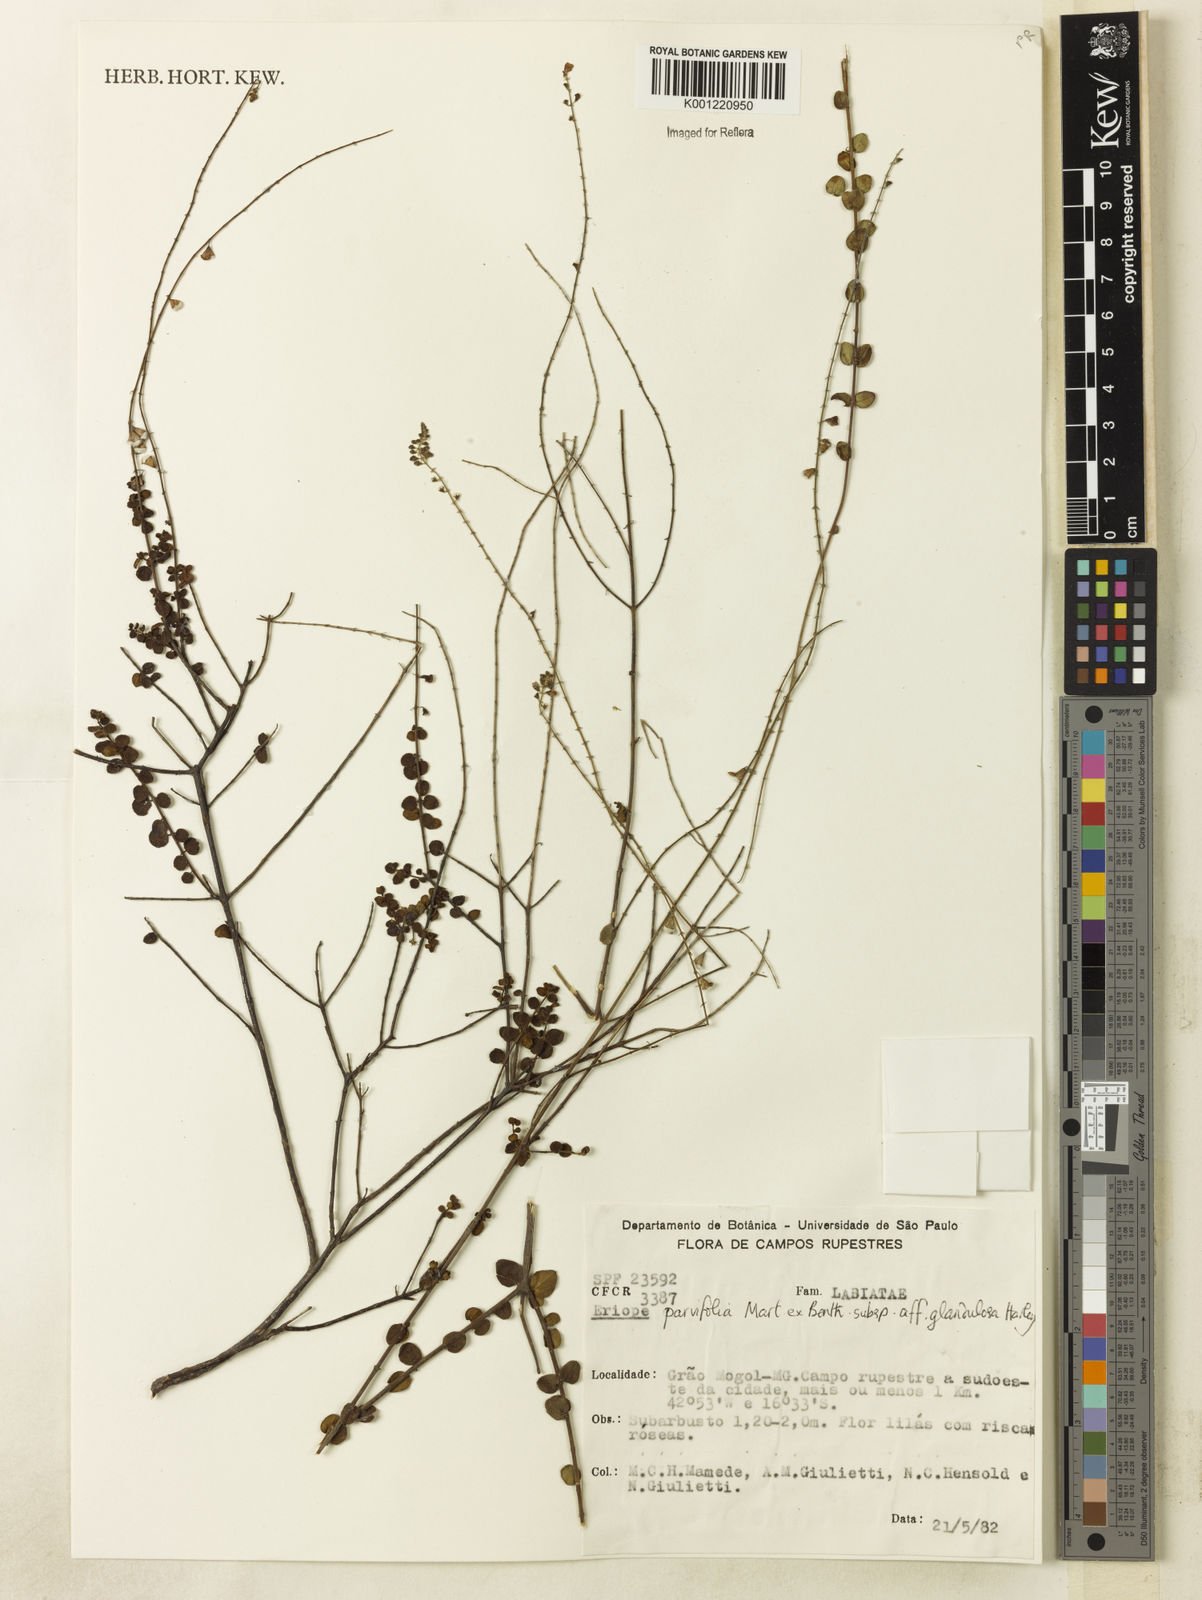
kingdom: Plantae
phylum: Tracheophyta
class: Magnoliopsida
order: Lamiales
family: Lamiaceae
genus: Eriope
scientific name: Eriope glandulosa
